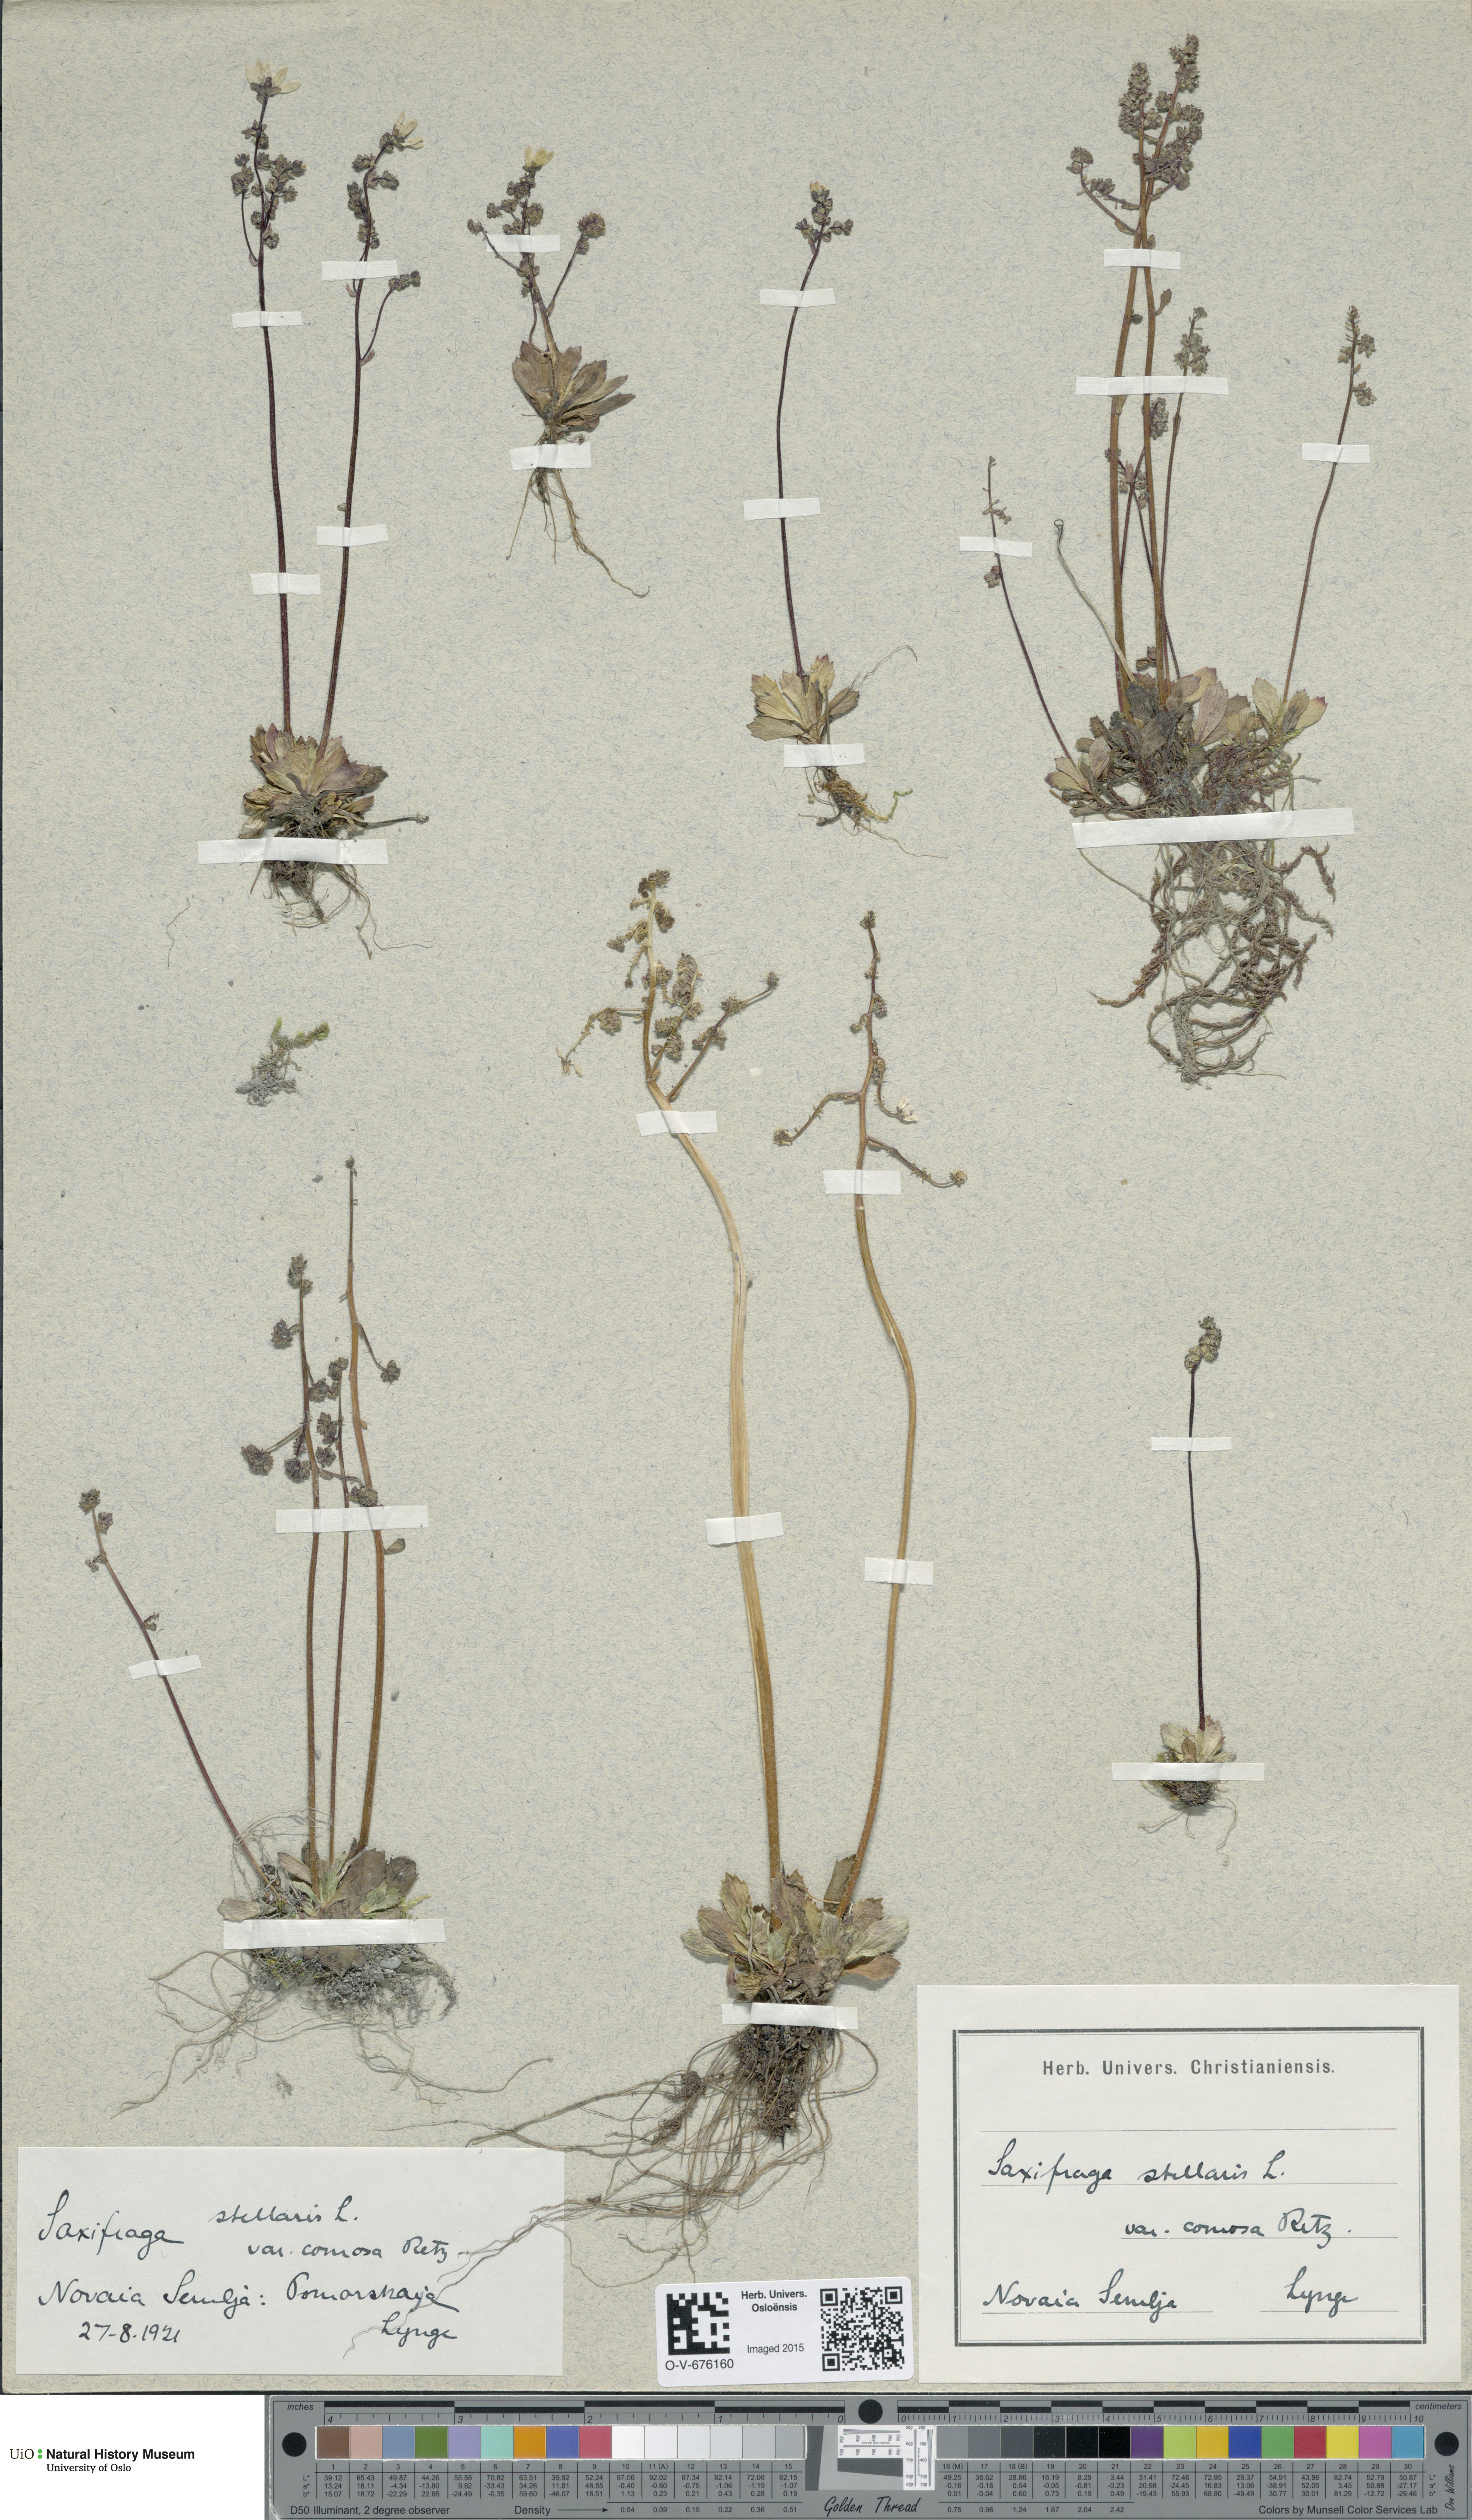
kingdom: Plantae
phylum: Tracheophyta
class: Magnoliopsida
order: Saxifragales
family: Saxifragaceae
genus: Micranthes
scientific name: Micranthes foliolosa
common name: Leafystem saxifrage
